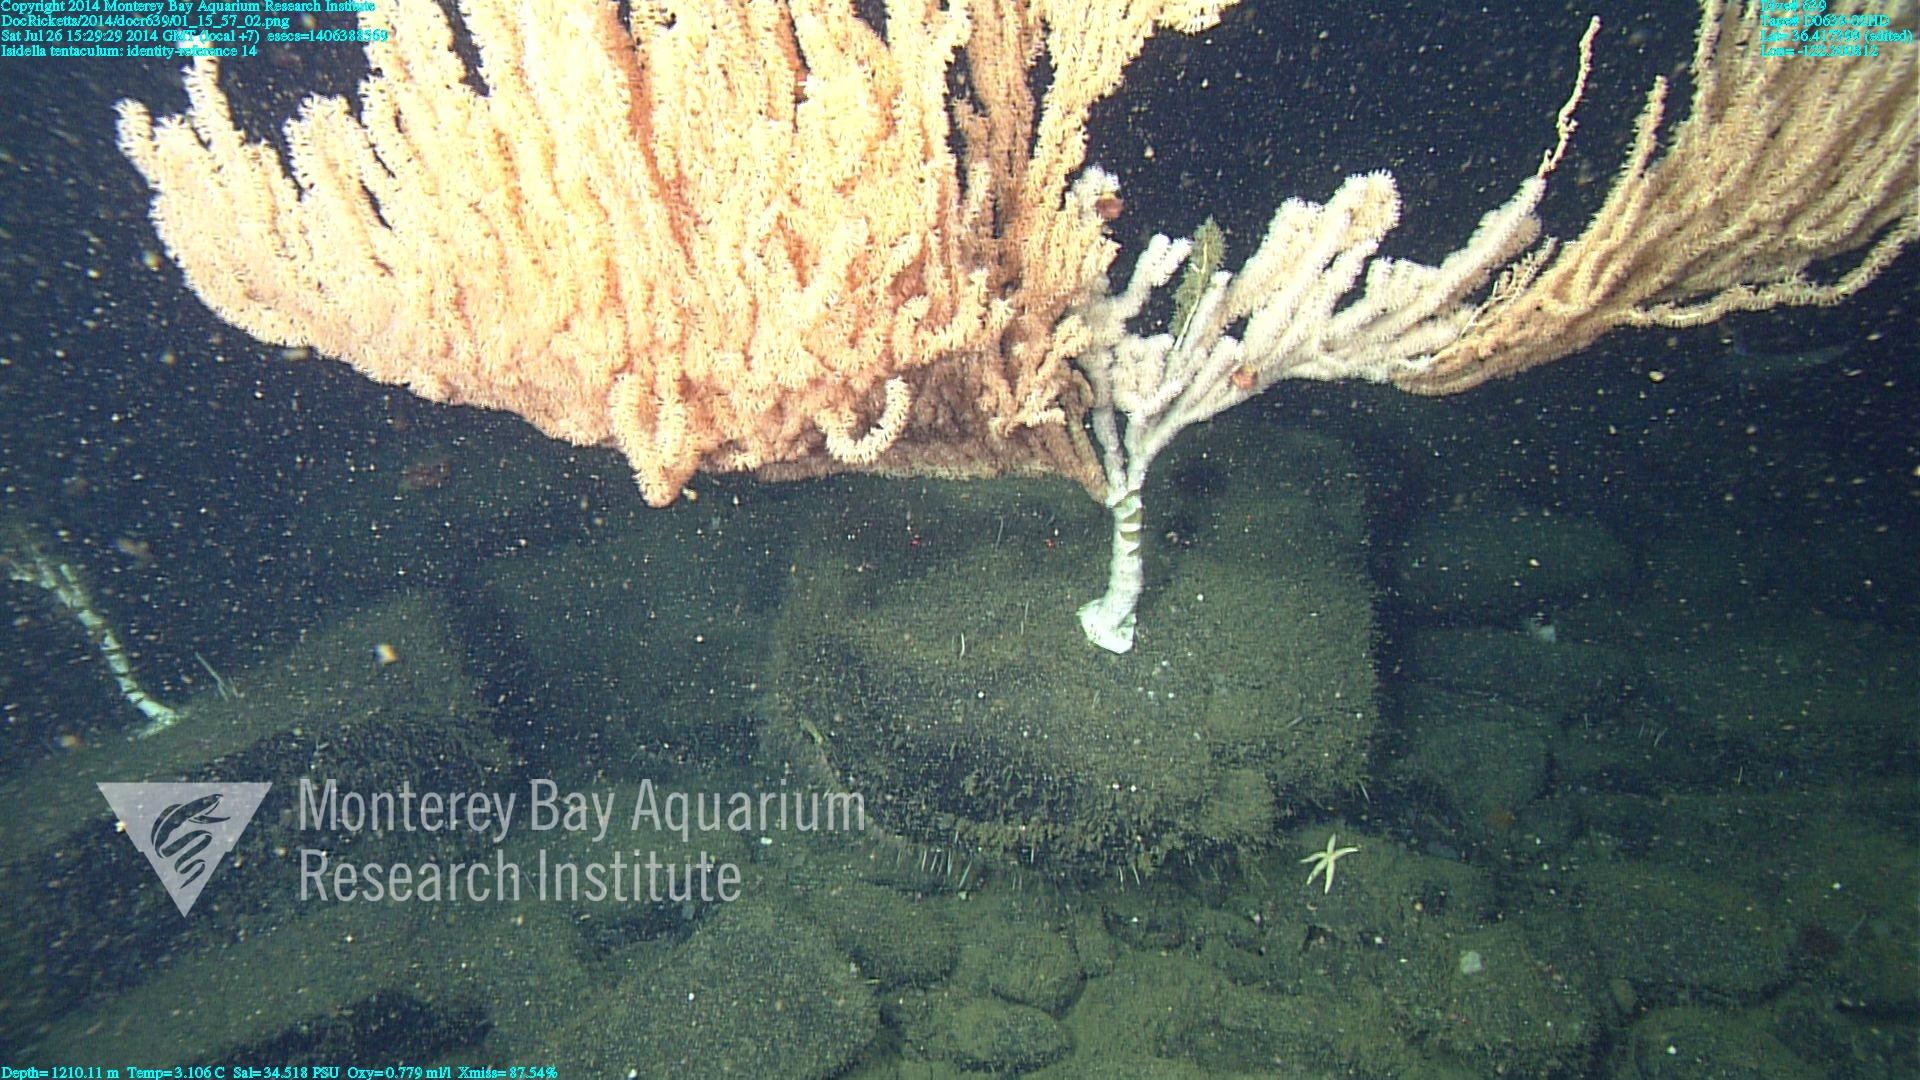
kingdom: Animalia
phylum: Cnidaria
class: Anthozoa
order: Scleralcyonacea
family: Keratoisididae
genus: Isidella
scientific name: Isidella tentaculum
